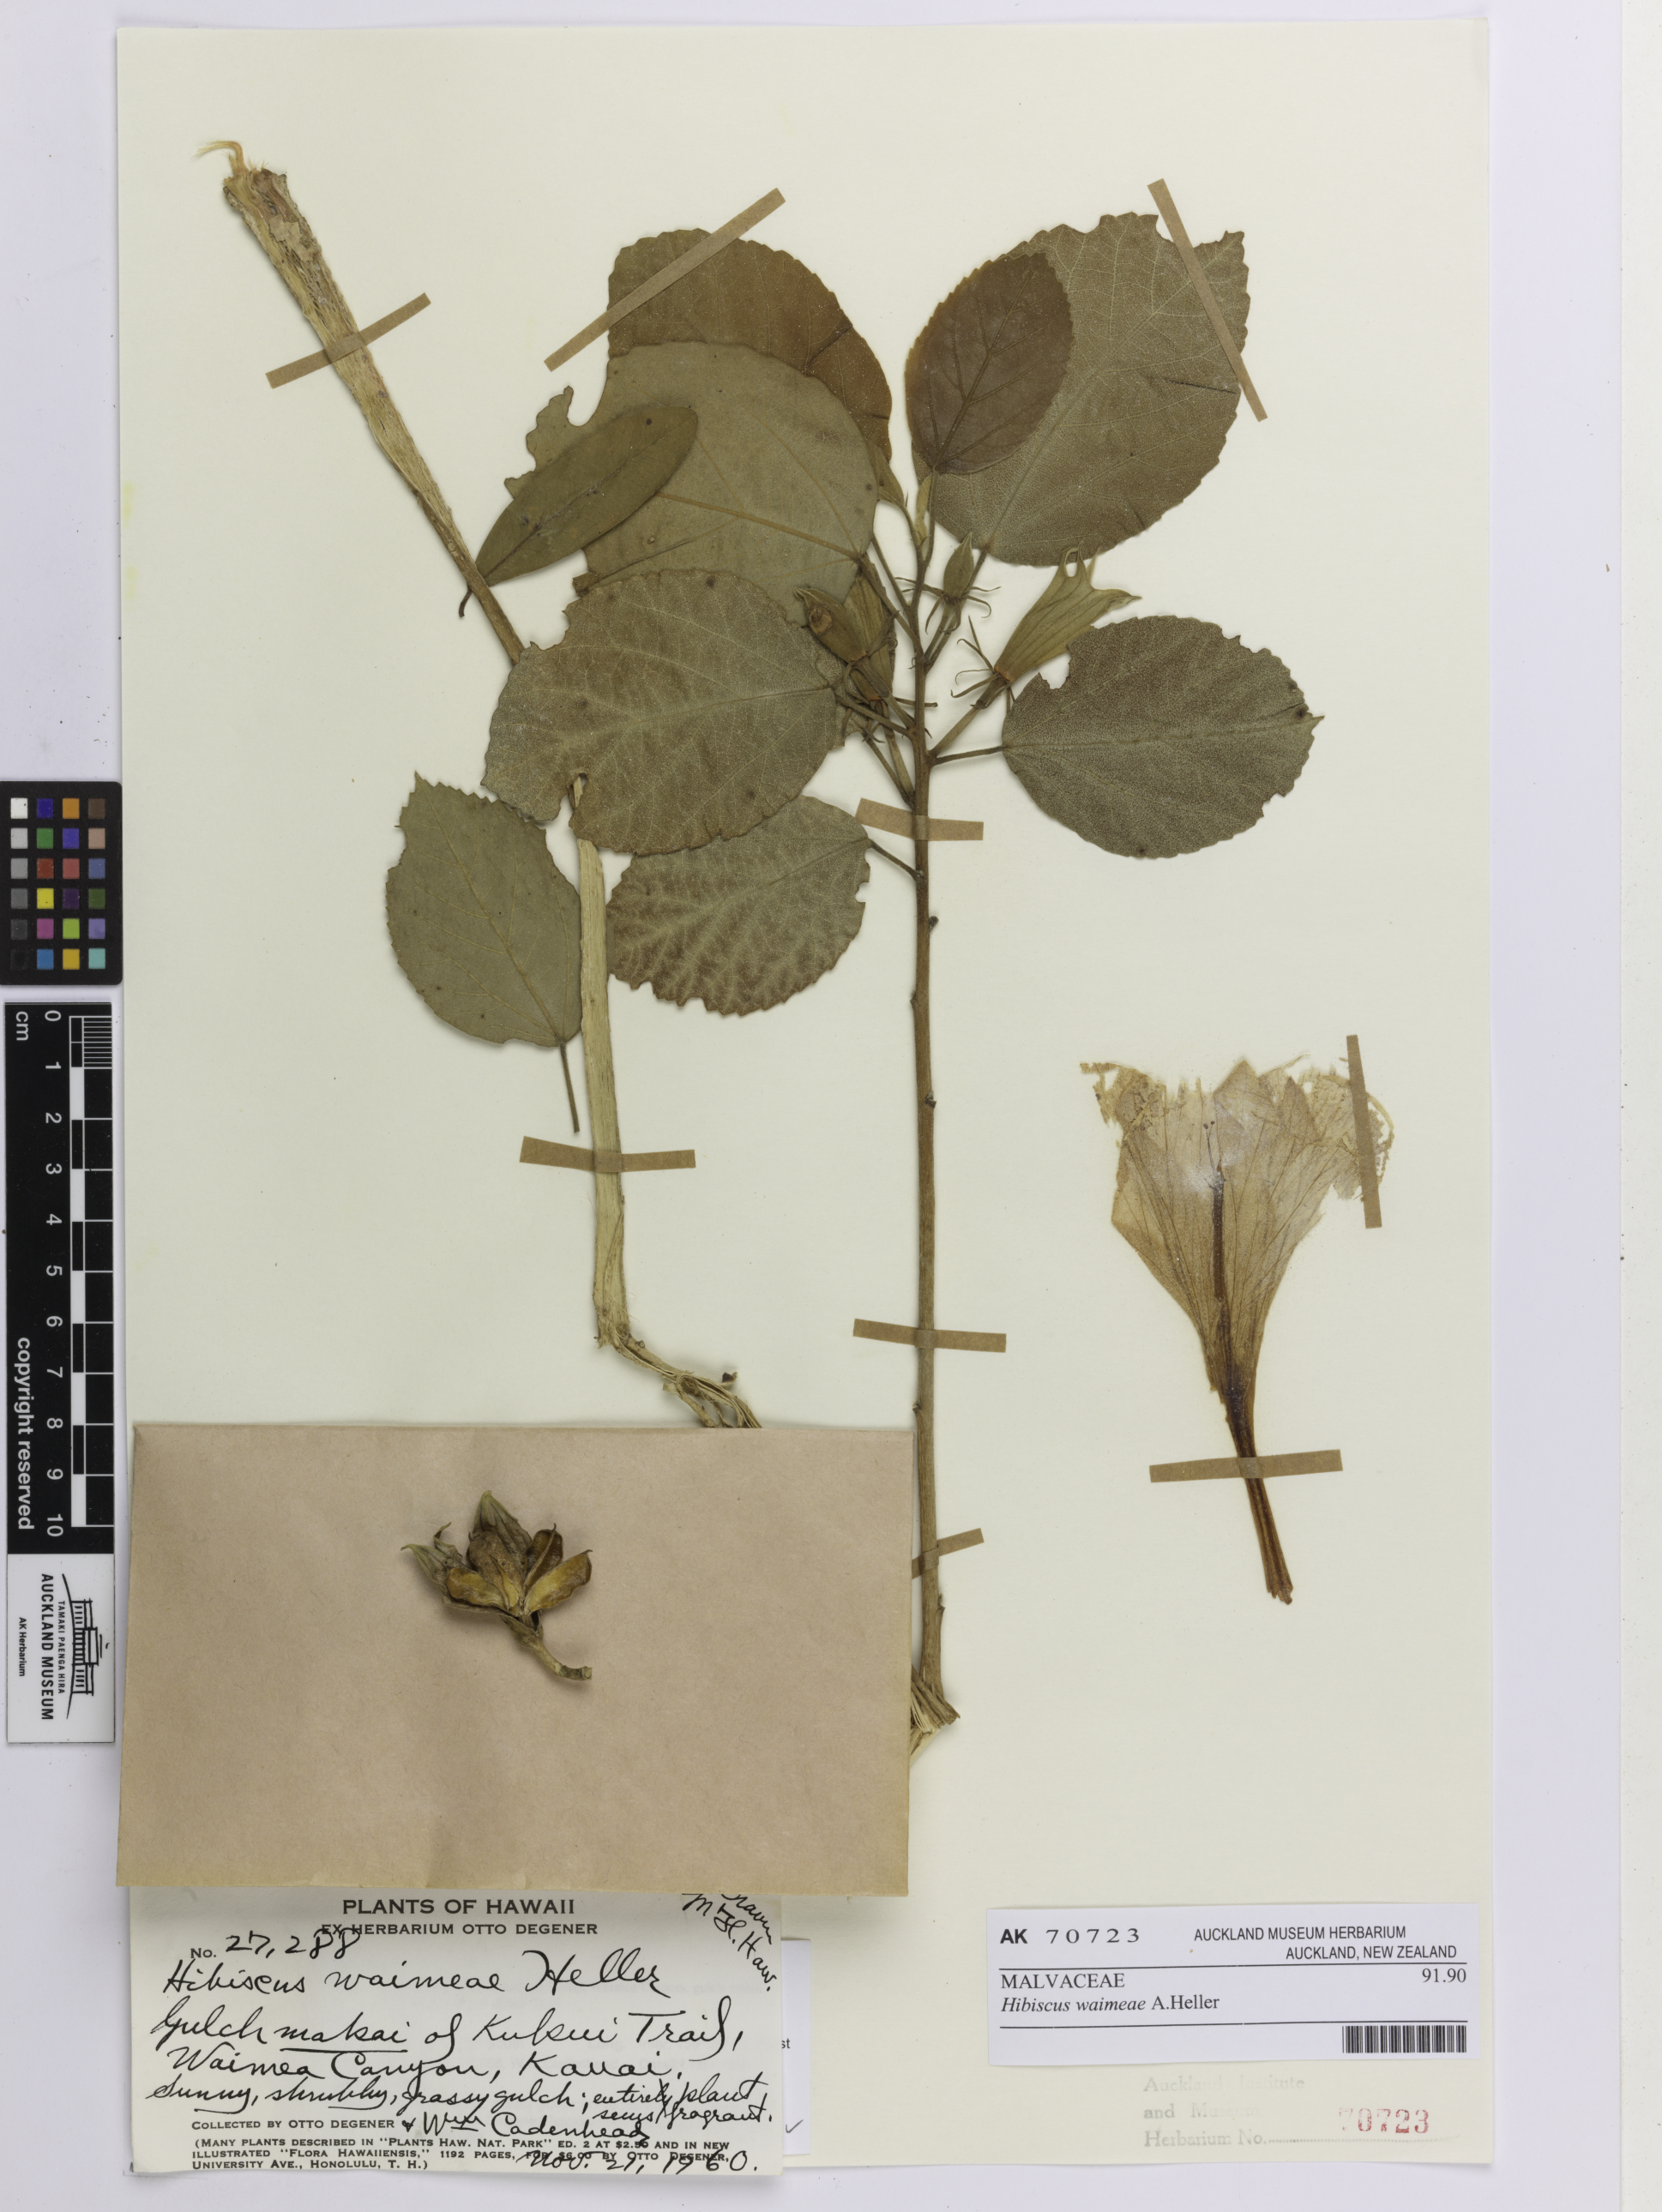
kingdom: Plantae
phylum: Tracheophyta
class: Magnoliopsida
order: Malvales
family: Malvaceae
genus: Hibiscus
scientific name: Hibiscus waimeae
